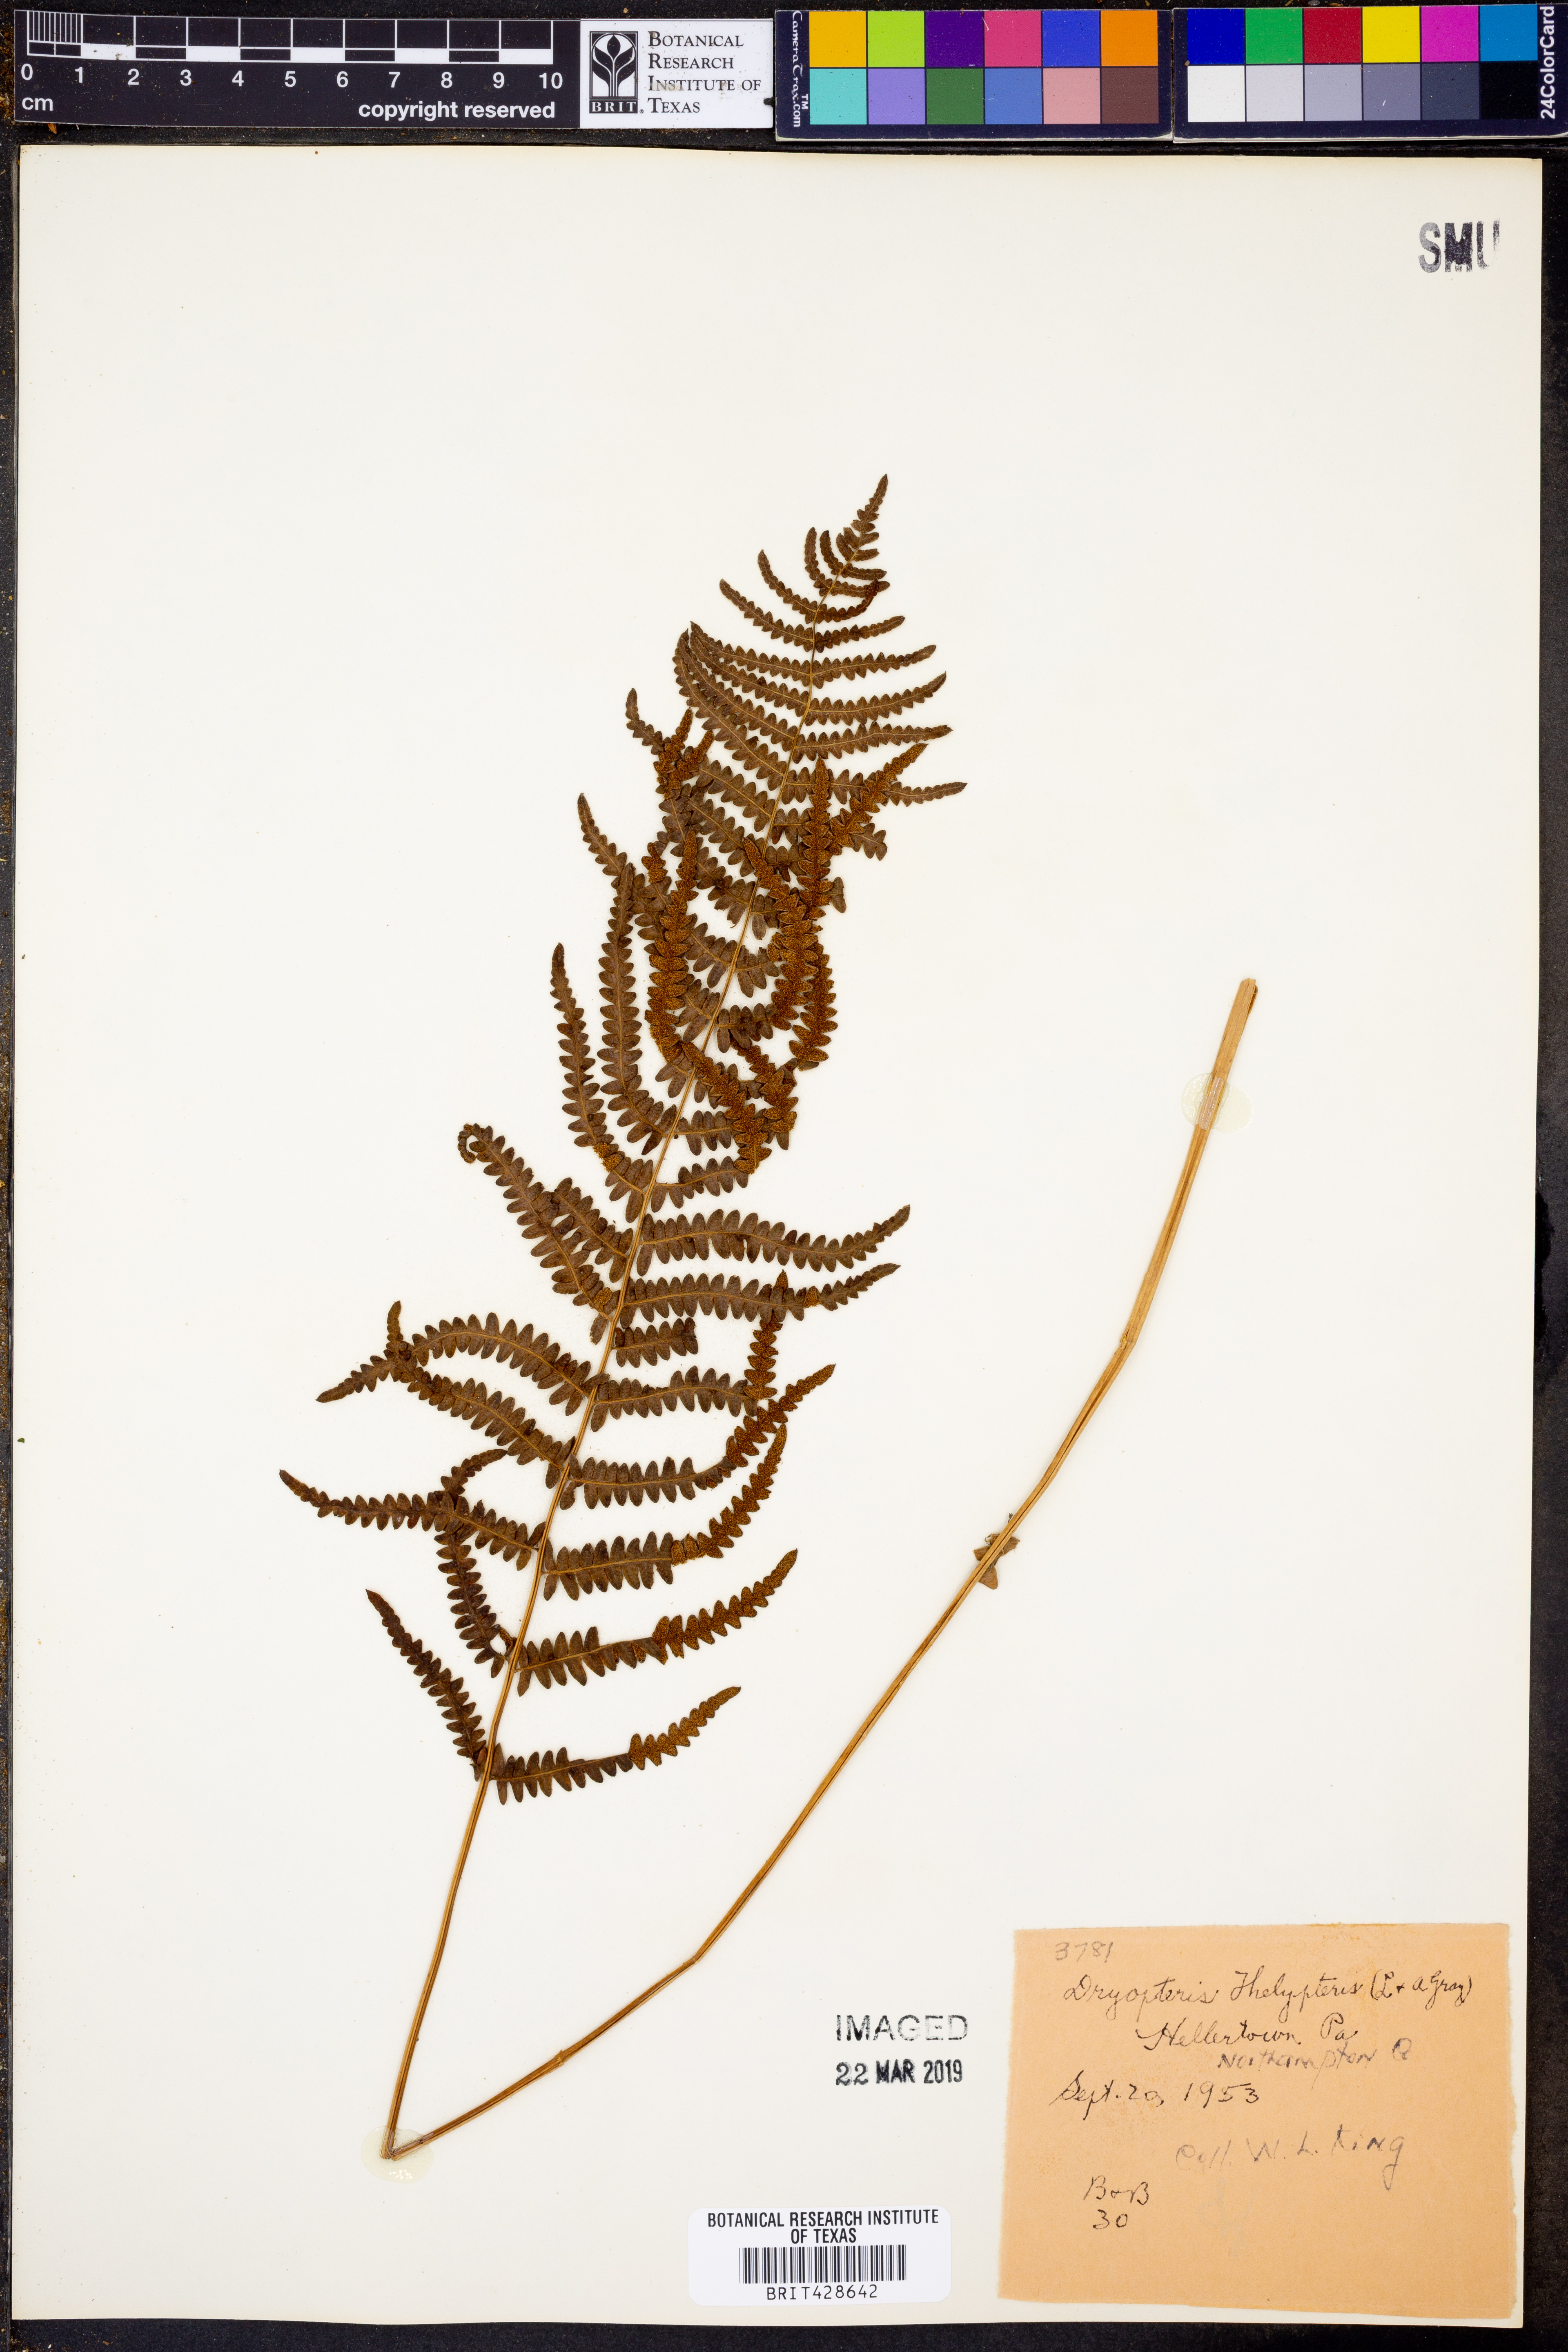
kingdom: Plantae
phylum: Tracheophyta
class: Polypodiopsida
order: Polypodiales
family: Thelypteridaceae
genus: Thelypteris
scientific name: Thelypteris palustris
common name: Marsh fern
